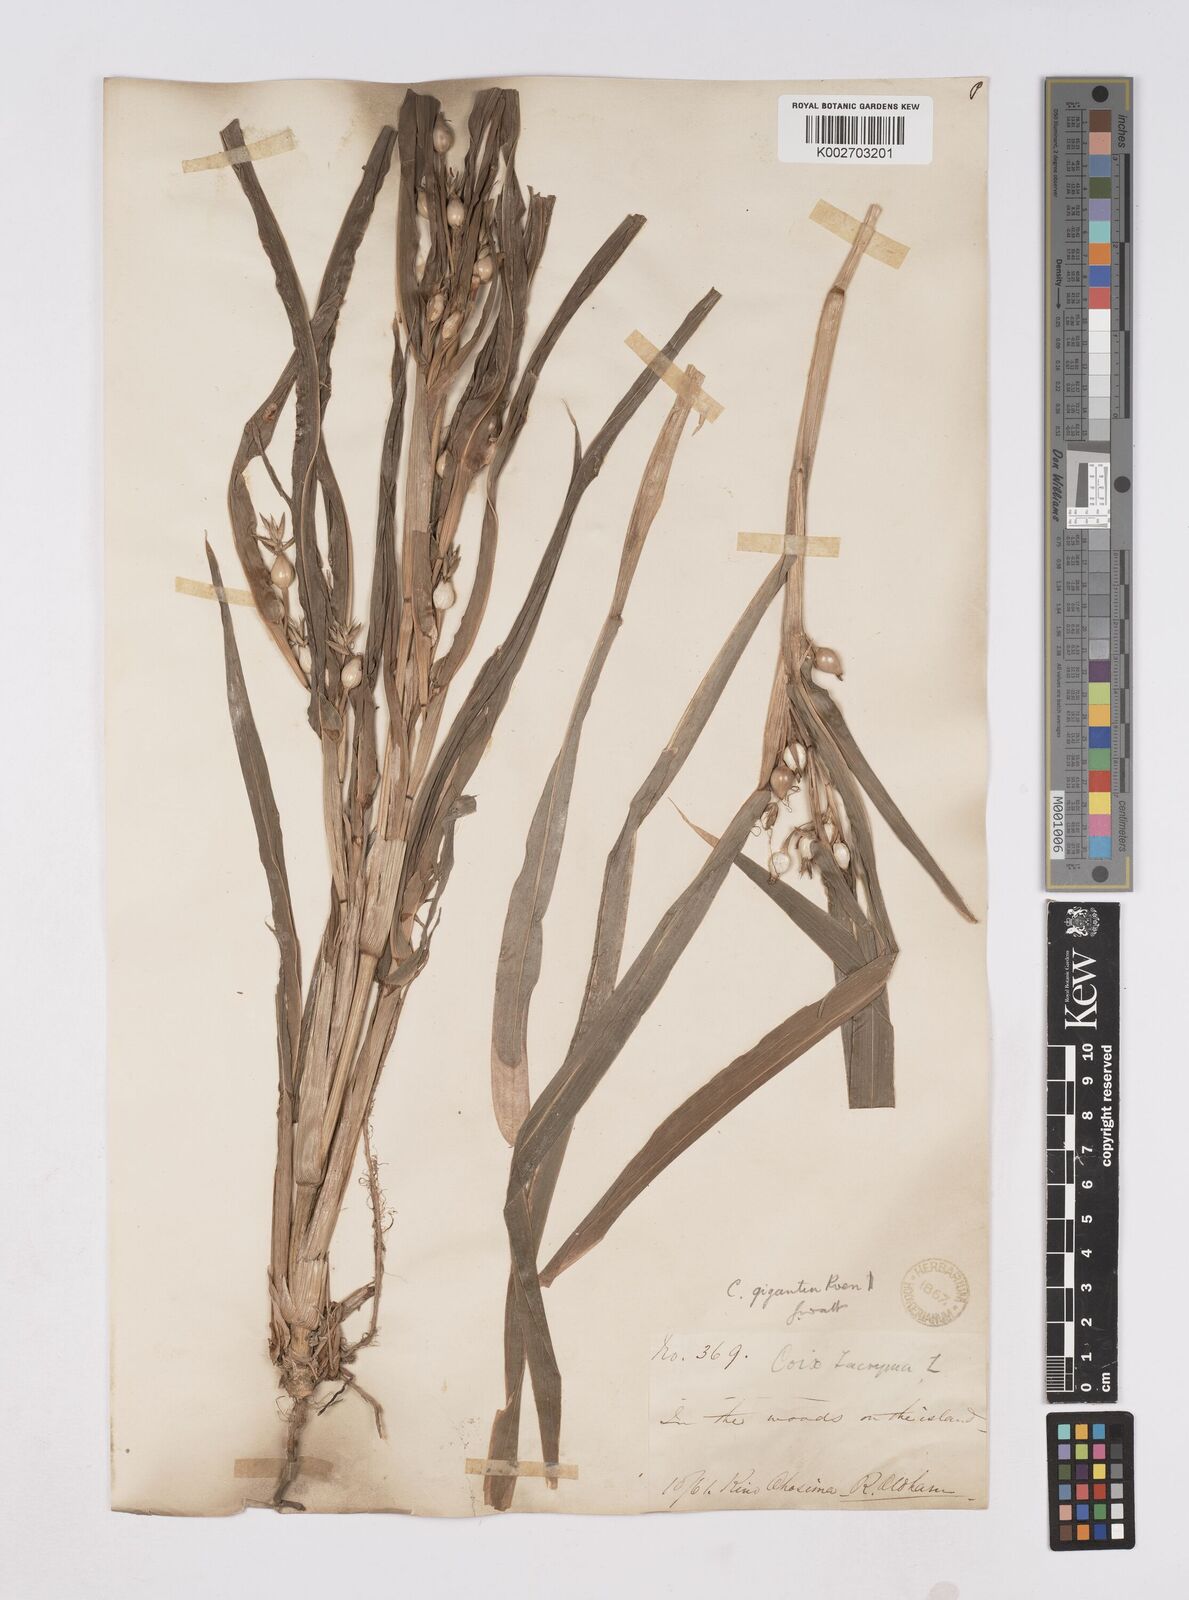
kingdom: Plantae
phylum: Tracheophyta
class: Liliopsida
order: Poales
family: Poaceae
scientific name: Poaceae
